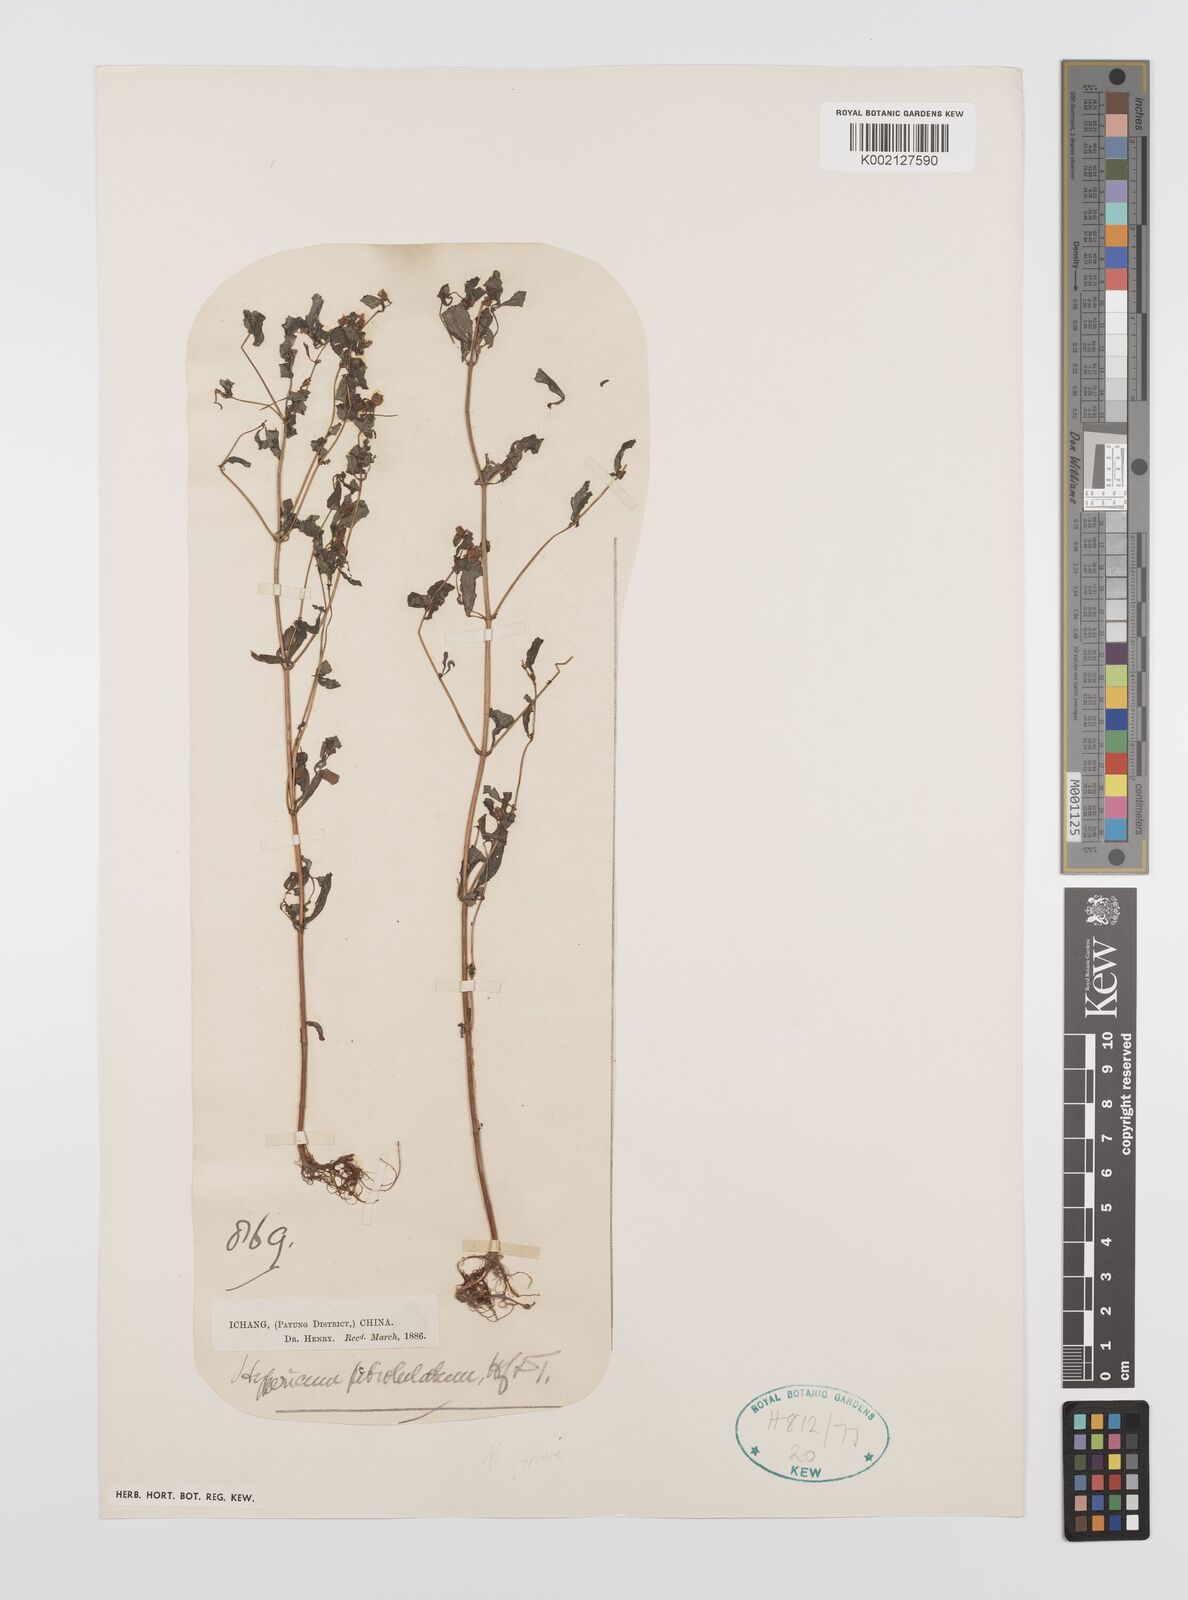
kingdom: Plantae
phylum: Tracheophyta
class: Magnoliopsida
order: Malpighiales
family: Hypericaceae
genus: Hypericum
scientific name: Hypericum petiolulatum
